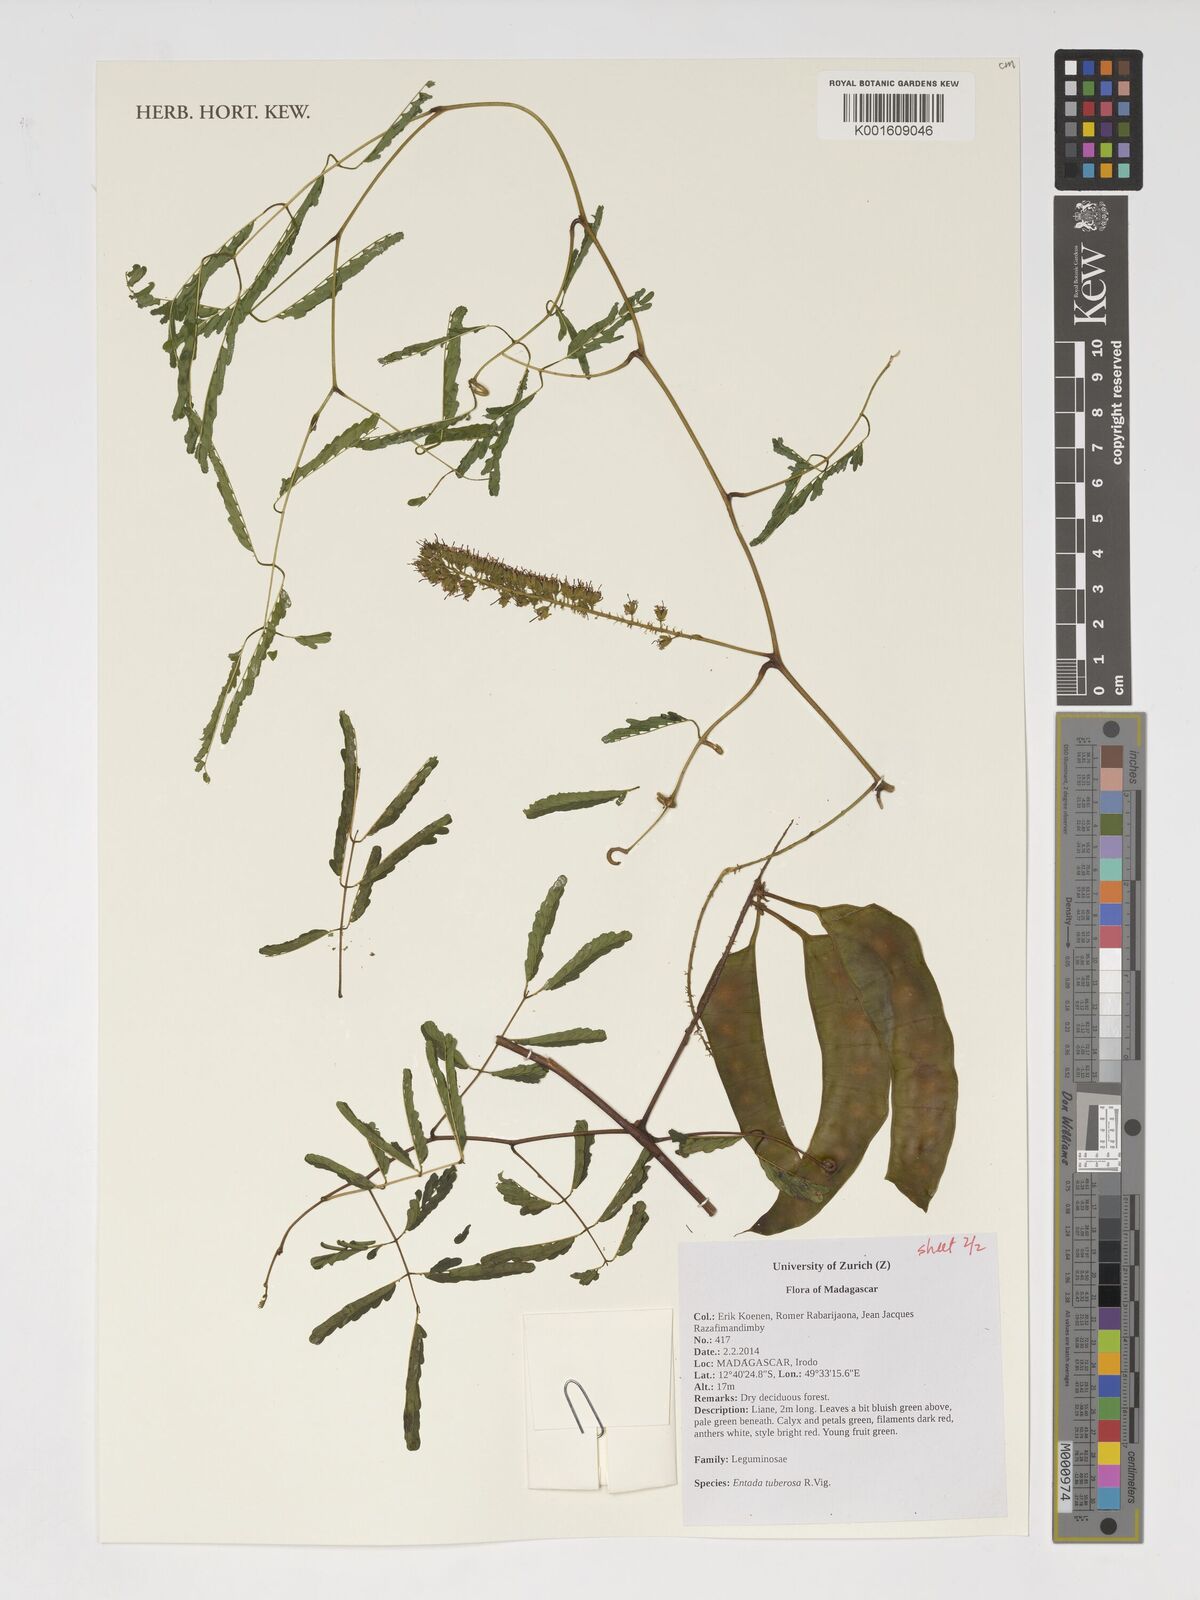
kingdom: Plantae
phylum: Tracheophyta
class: Magnoliopsida
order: Fabales
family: Fabaceae
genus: Entada
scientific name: Entada tuberosa
